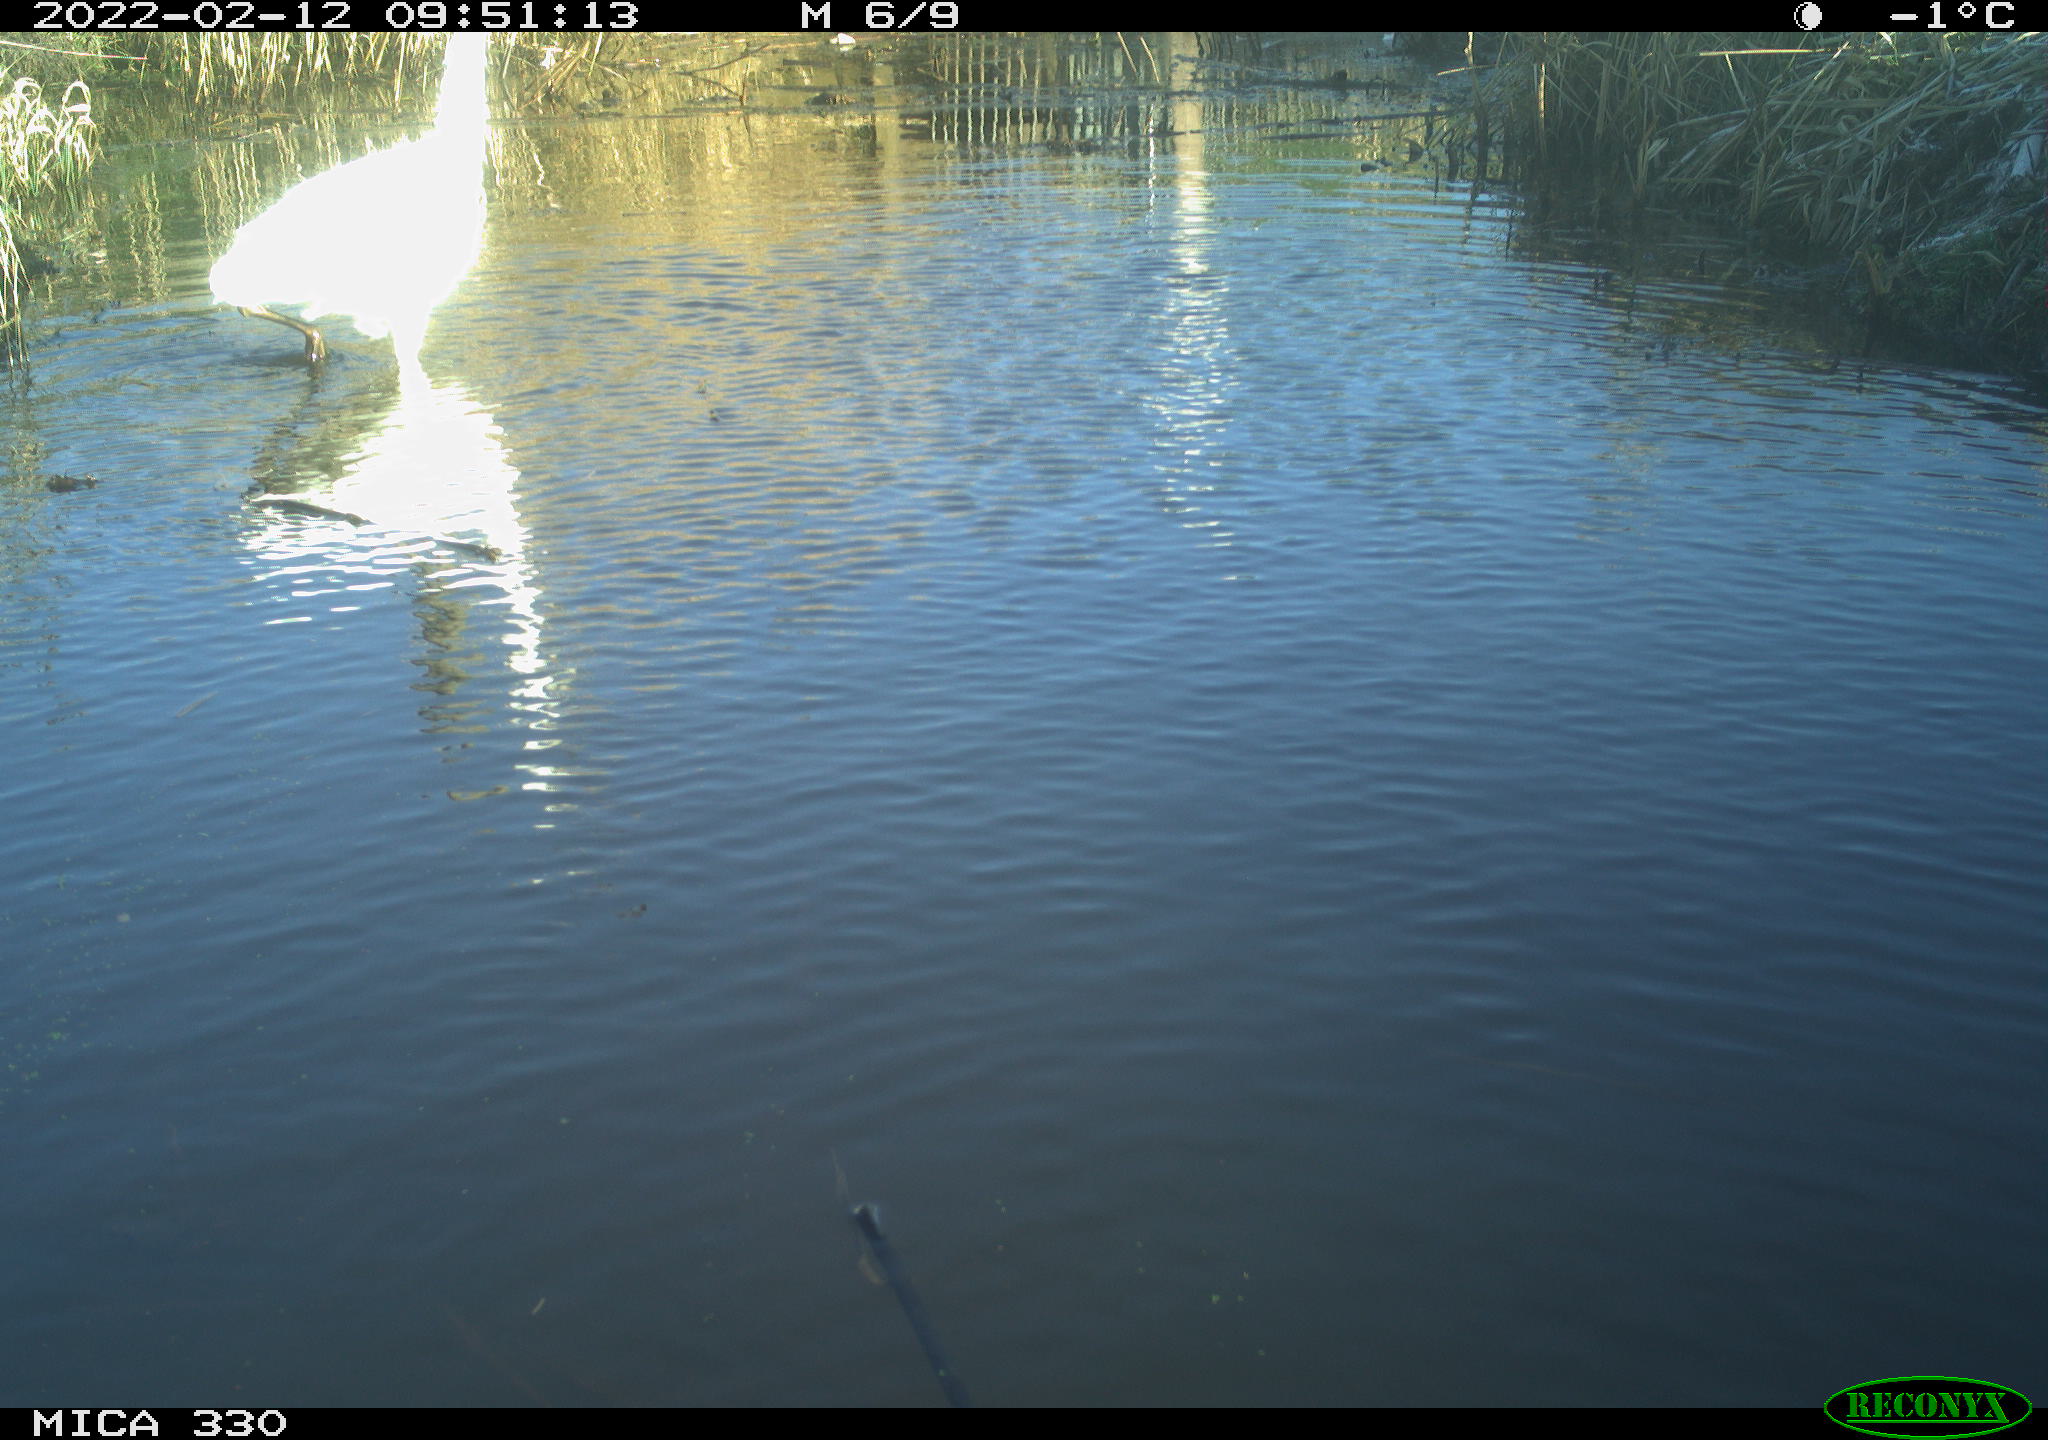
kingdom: Animalia
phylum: Chordata
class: Aves
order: Pelecaniformes
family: Ardeidae
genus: Ardea
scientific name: Ardea alba
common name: Great egret
